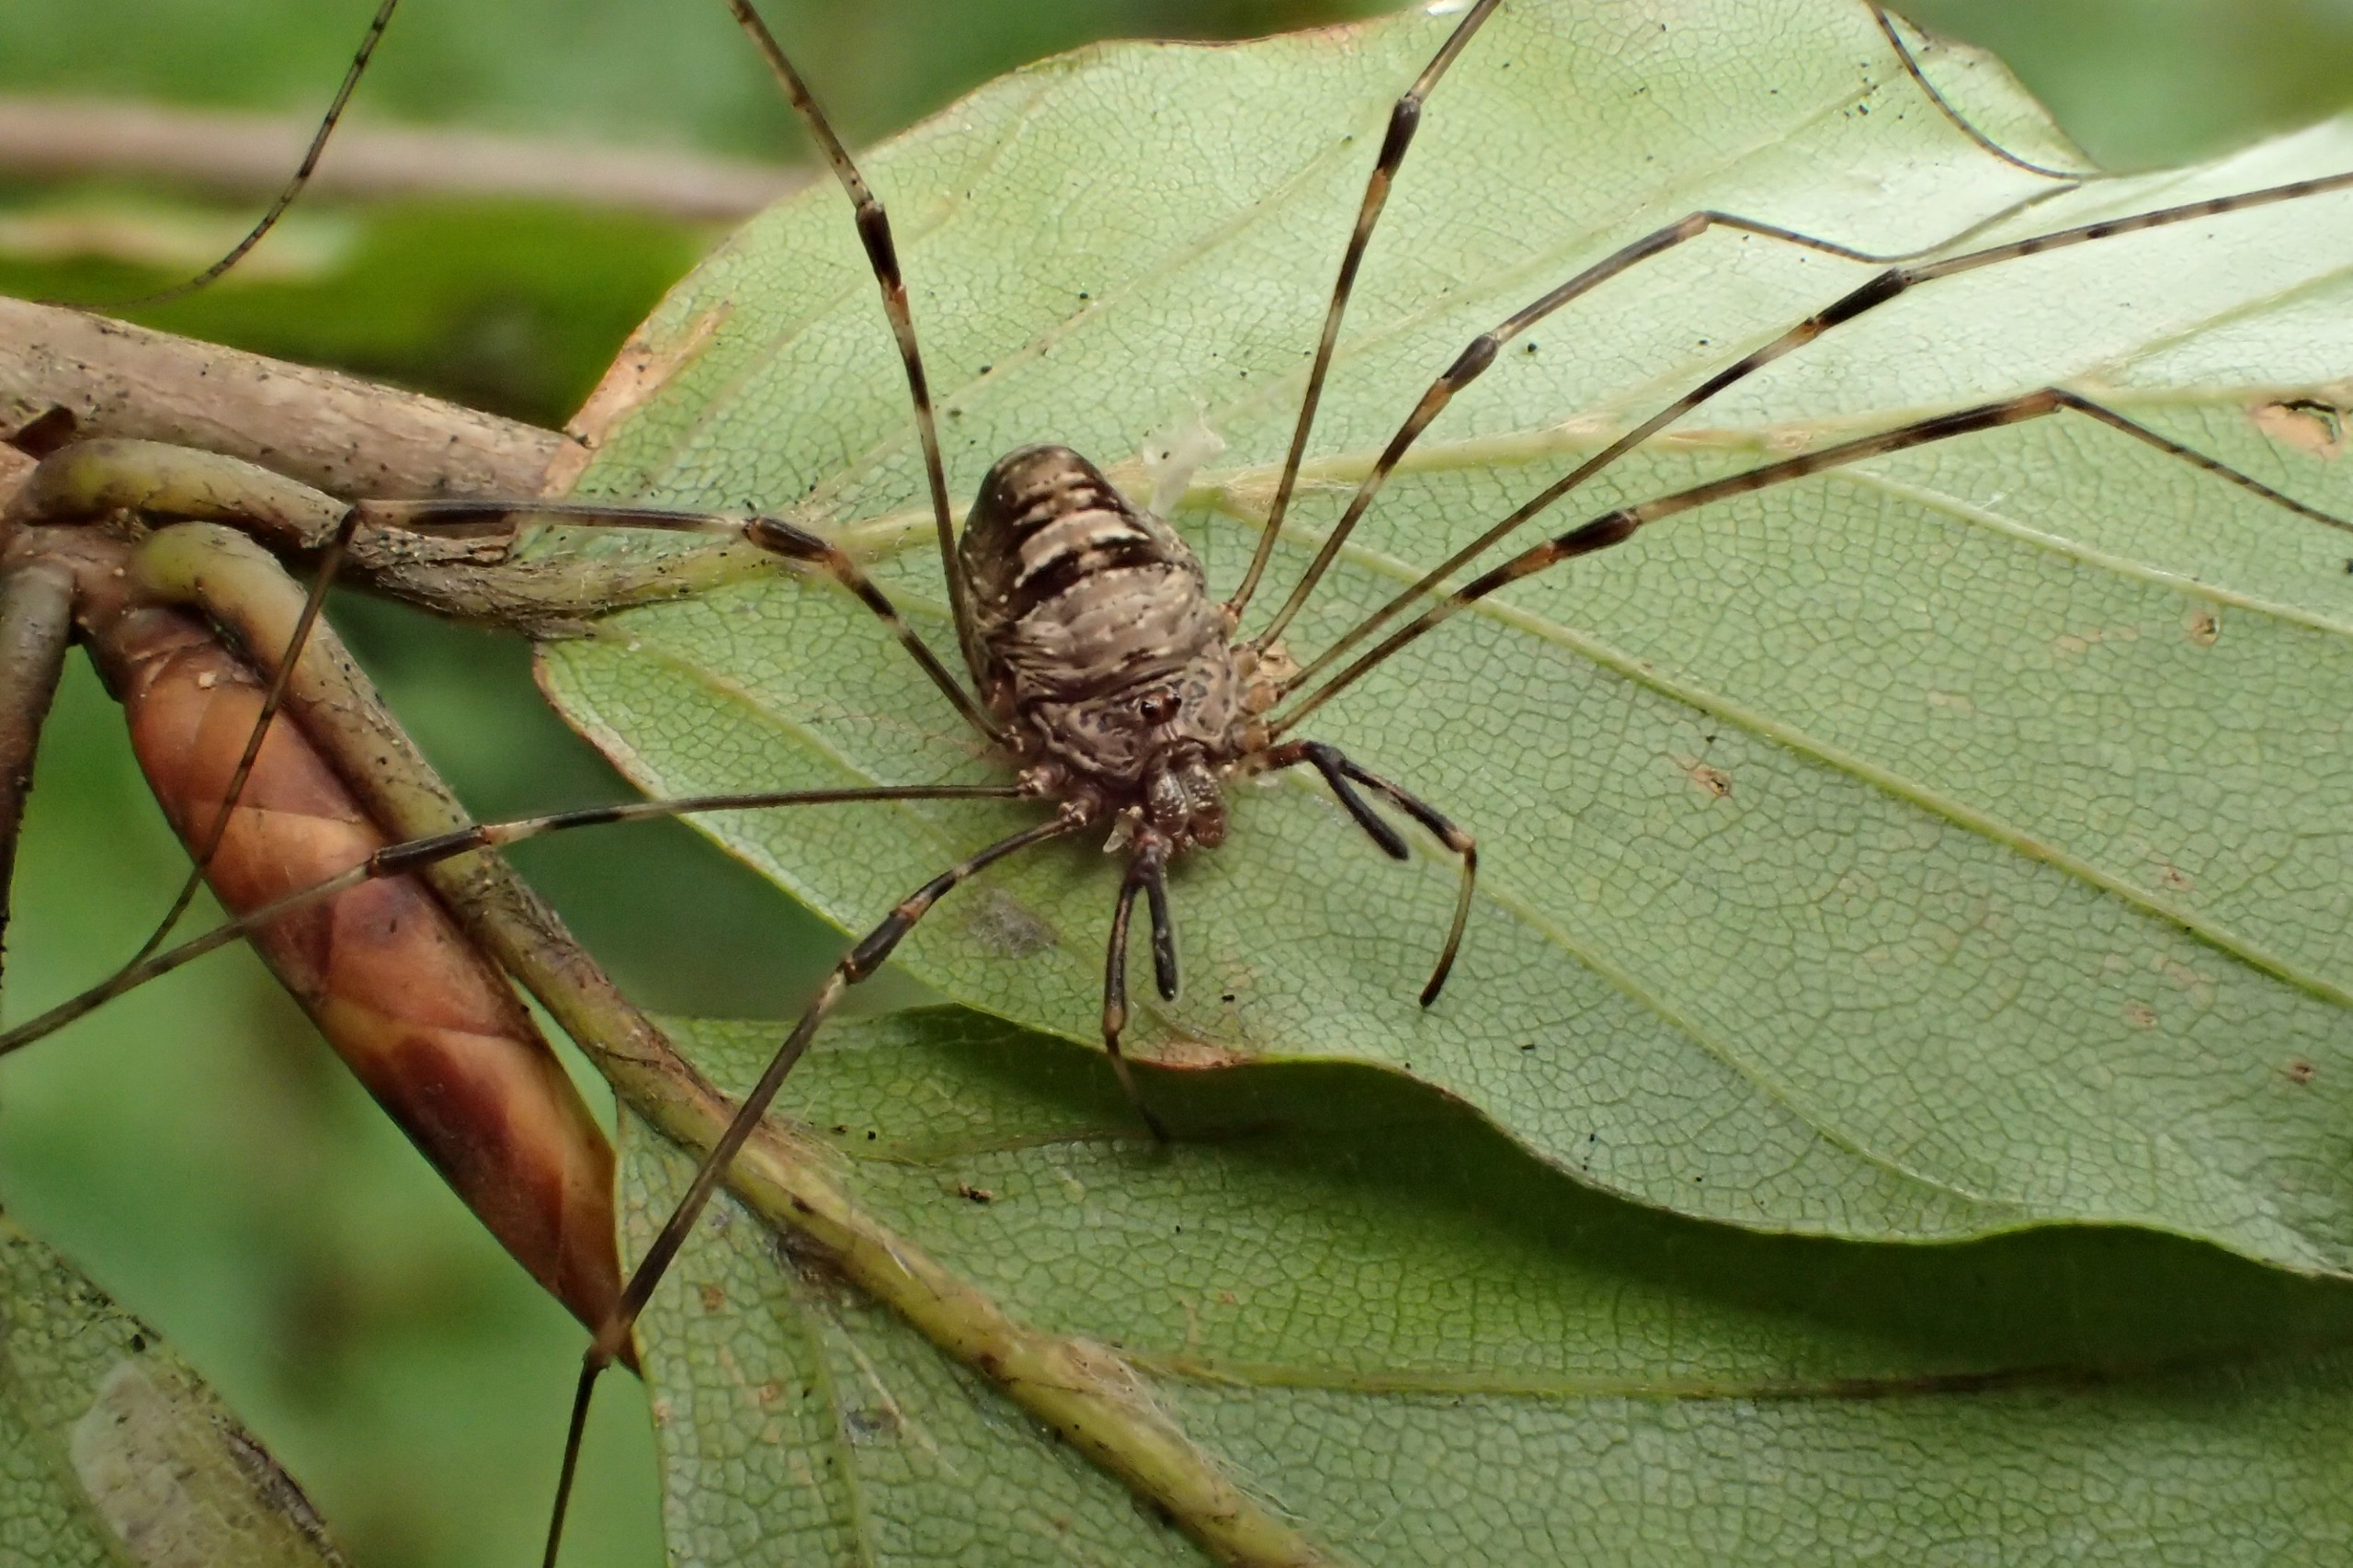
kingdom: Animalia
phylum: Arthropoda
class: Arachnida
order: Opiliones
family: Phalangiidae
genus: Dicranopalpus
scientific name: Dicranopalpus ramosus
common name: Gaffelmejer
